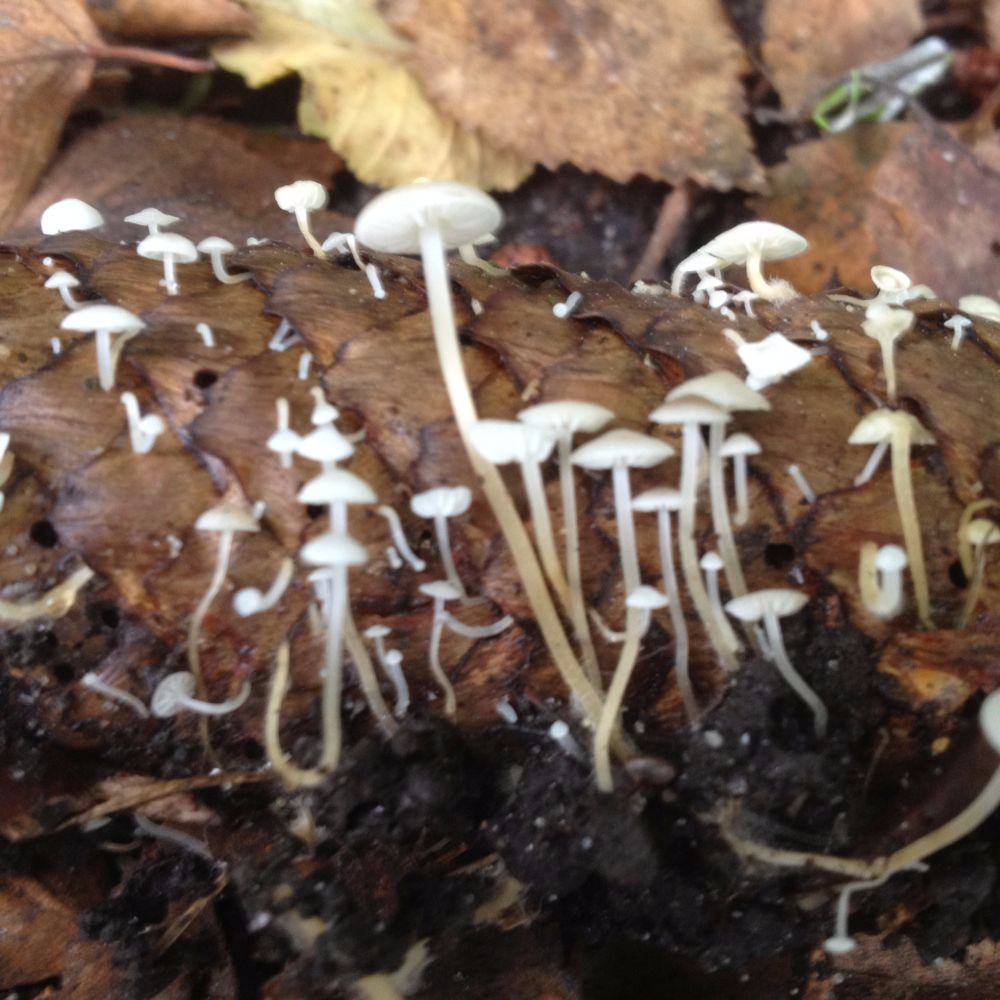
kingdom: Fungi
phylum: Basidiomycota
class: Agaricomycetes
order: Agaricales
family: Physalacriaceae
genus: Strobilurus
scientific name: Strobilurus esculentus
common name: gran-koglehat
